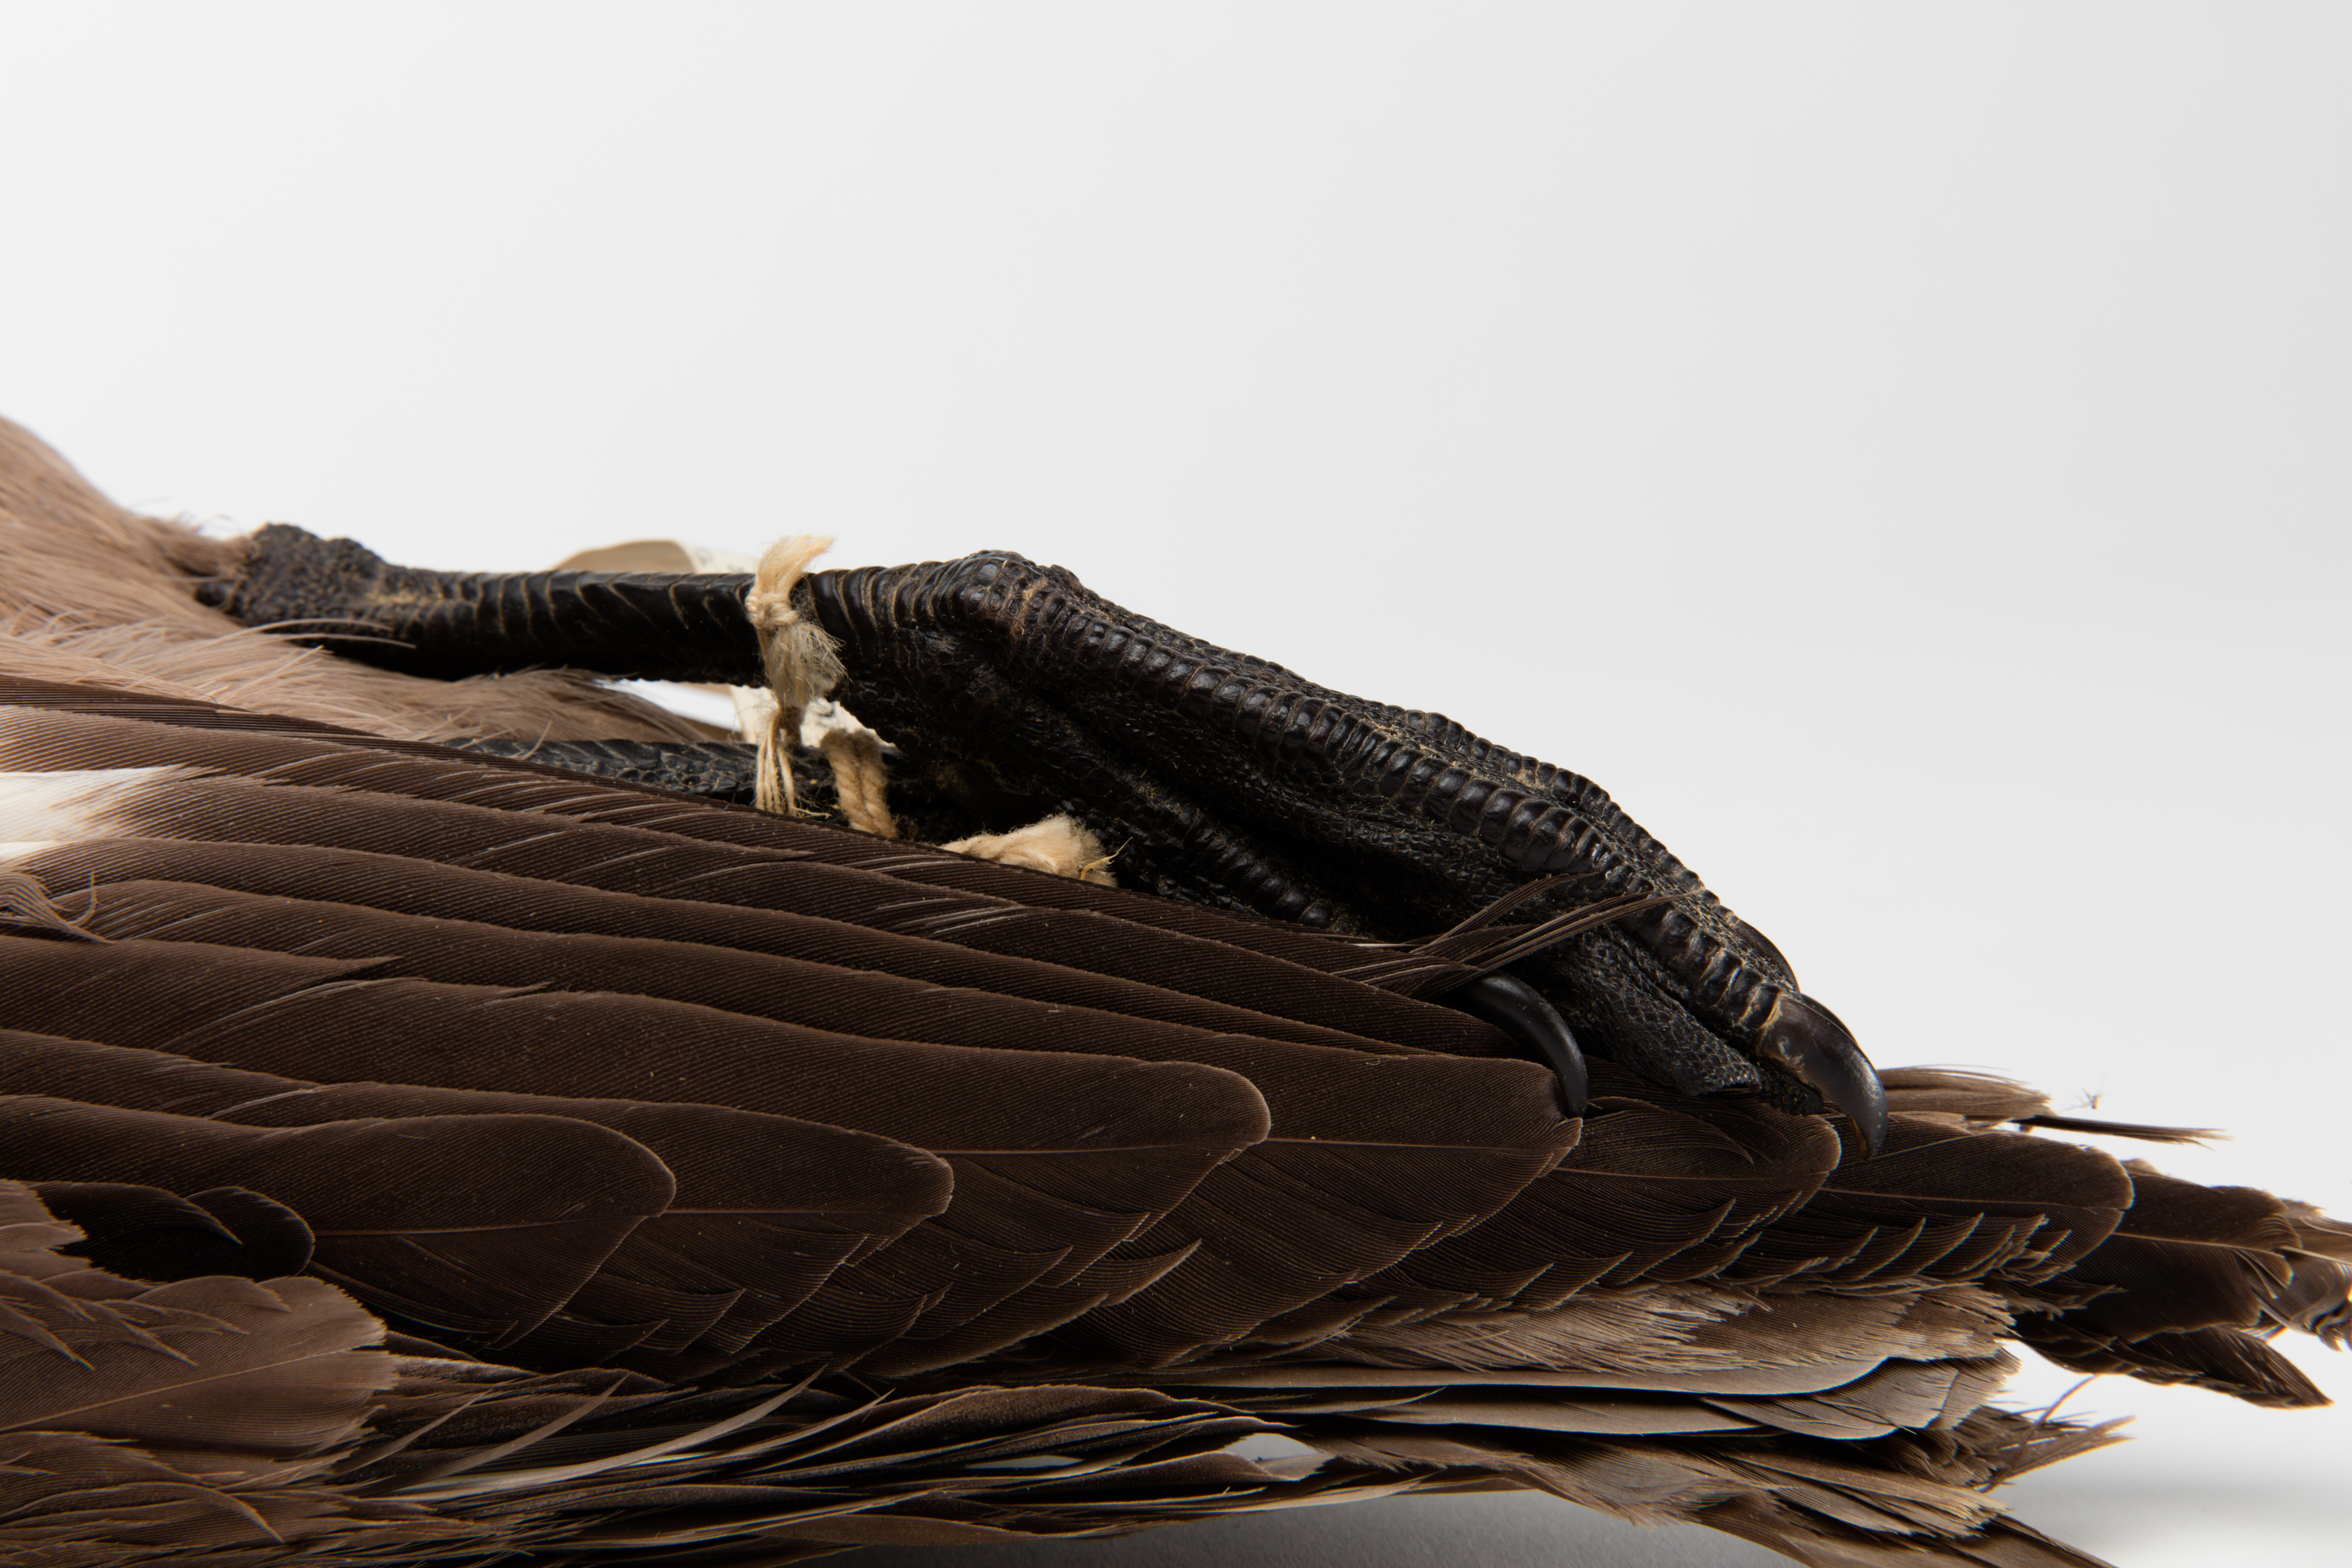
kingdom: Animalia
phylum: Chordata
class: Aves
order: Charadriiformes
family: Stercorariidae
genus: Stercorarius
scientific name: Stercorarius antarcticus
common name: Brown skua
